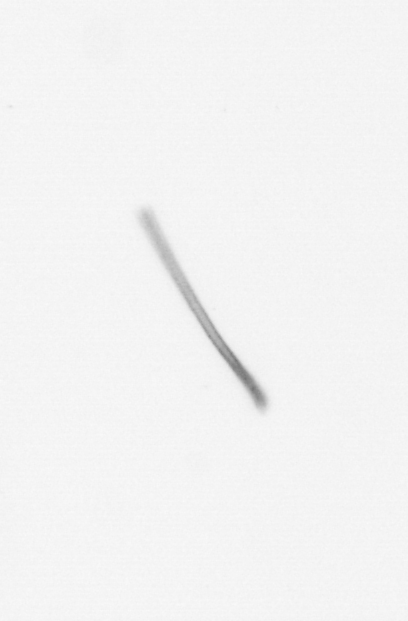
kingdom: Chromista
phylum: Ochrophyta
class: Bacillariophyceae
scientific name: Bacillariophyceae
